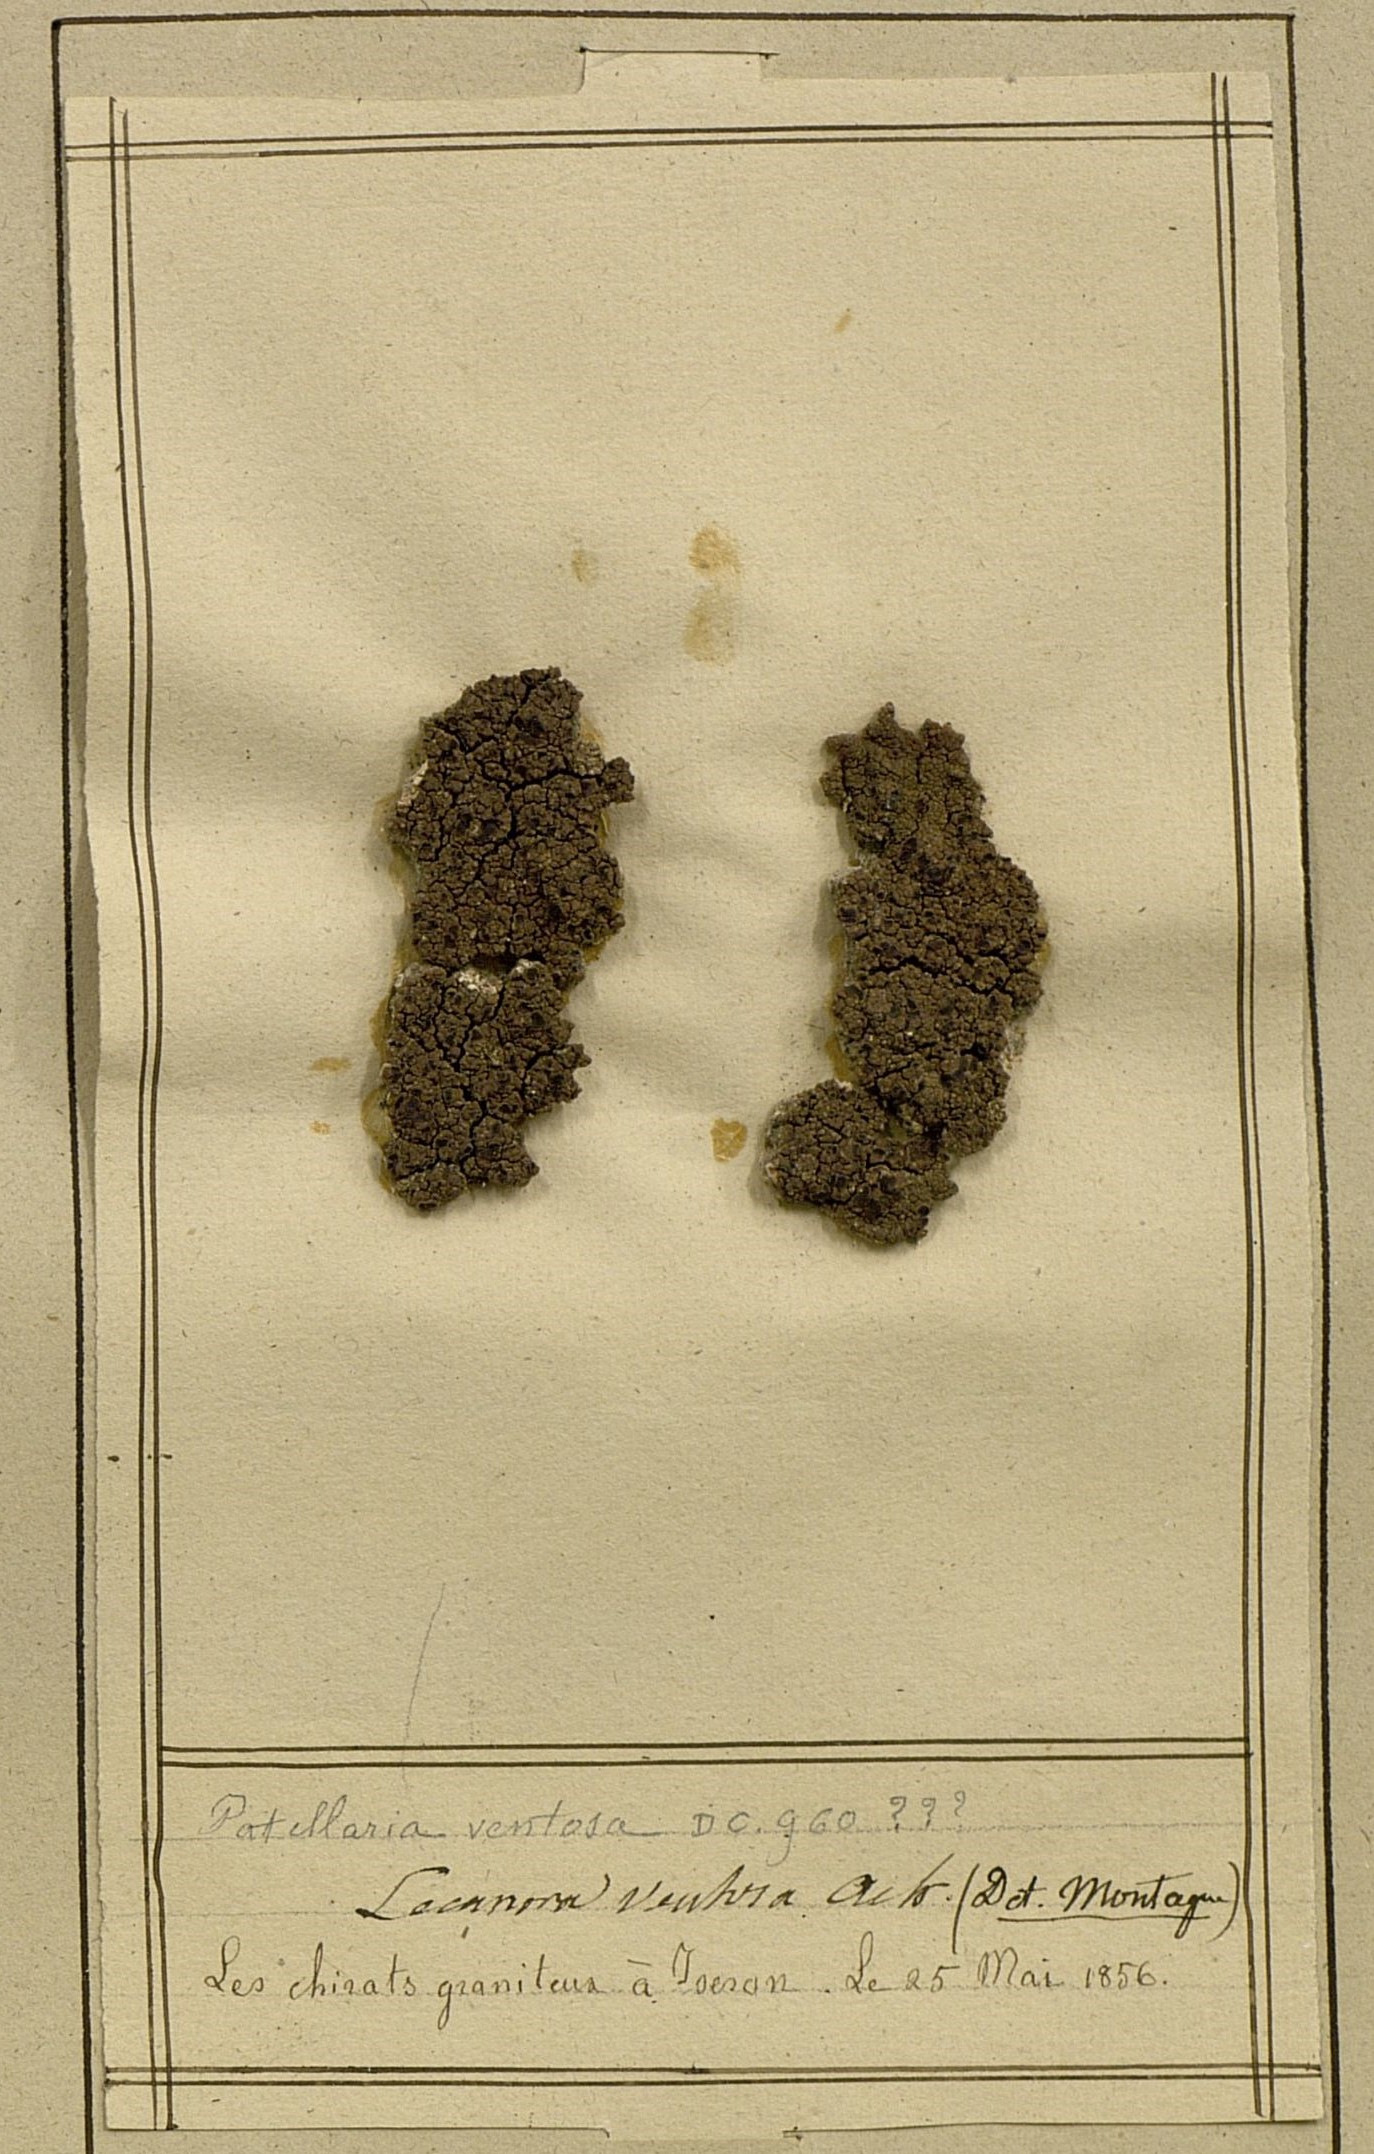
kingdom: Fungi
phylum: Ascomycota
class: Lecanoromycetes
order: Umbilicariales
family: Ophioparmaceae
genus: Ophioparma
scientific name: Ophioparma ventosa
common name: Blood-spot
